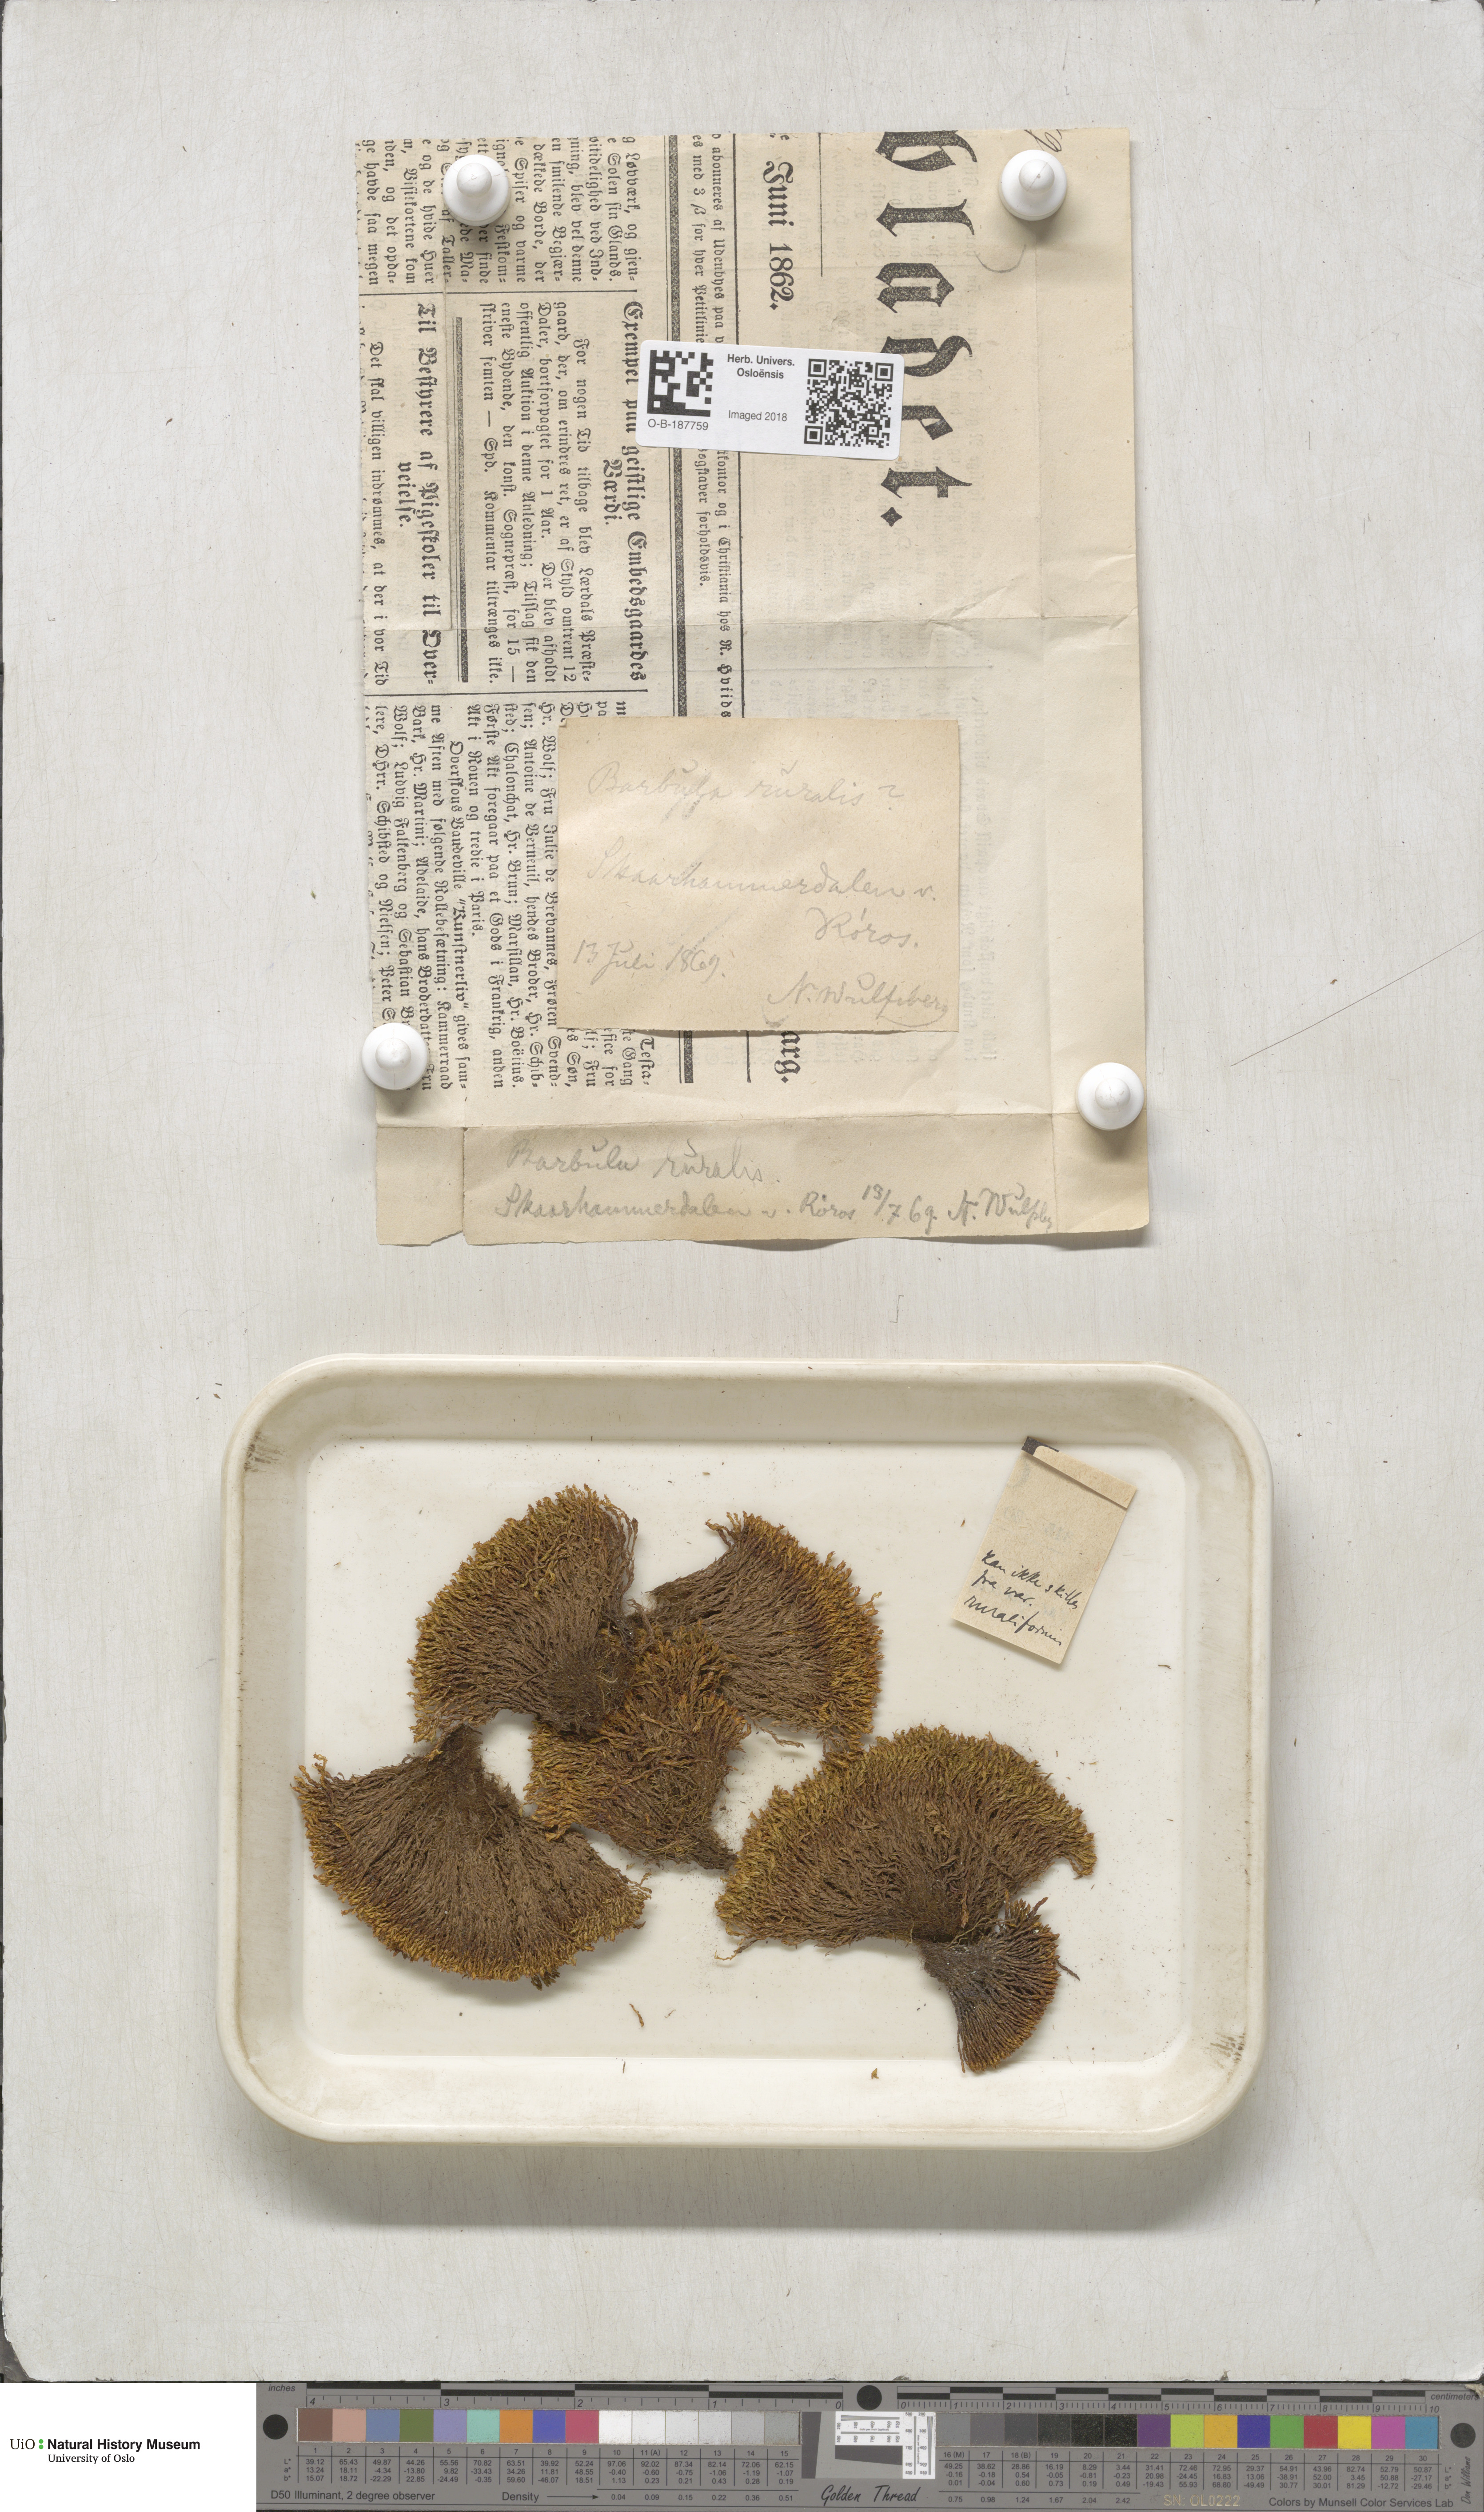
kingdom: Plantae
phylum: Bryophyta
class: Bryopsida
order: Pottiales
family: Pottiaceae
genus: Syntrichia
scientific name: Syntrichia ruralis
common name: Sidewalk screw moss
